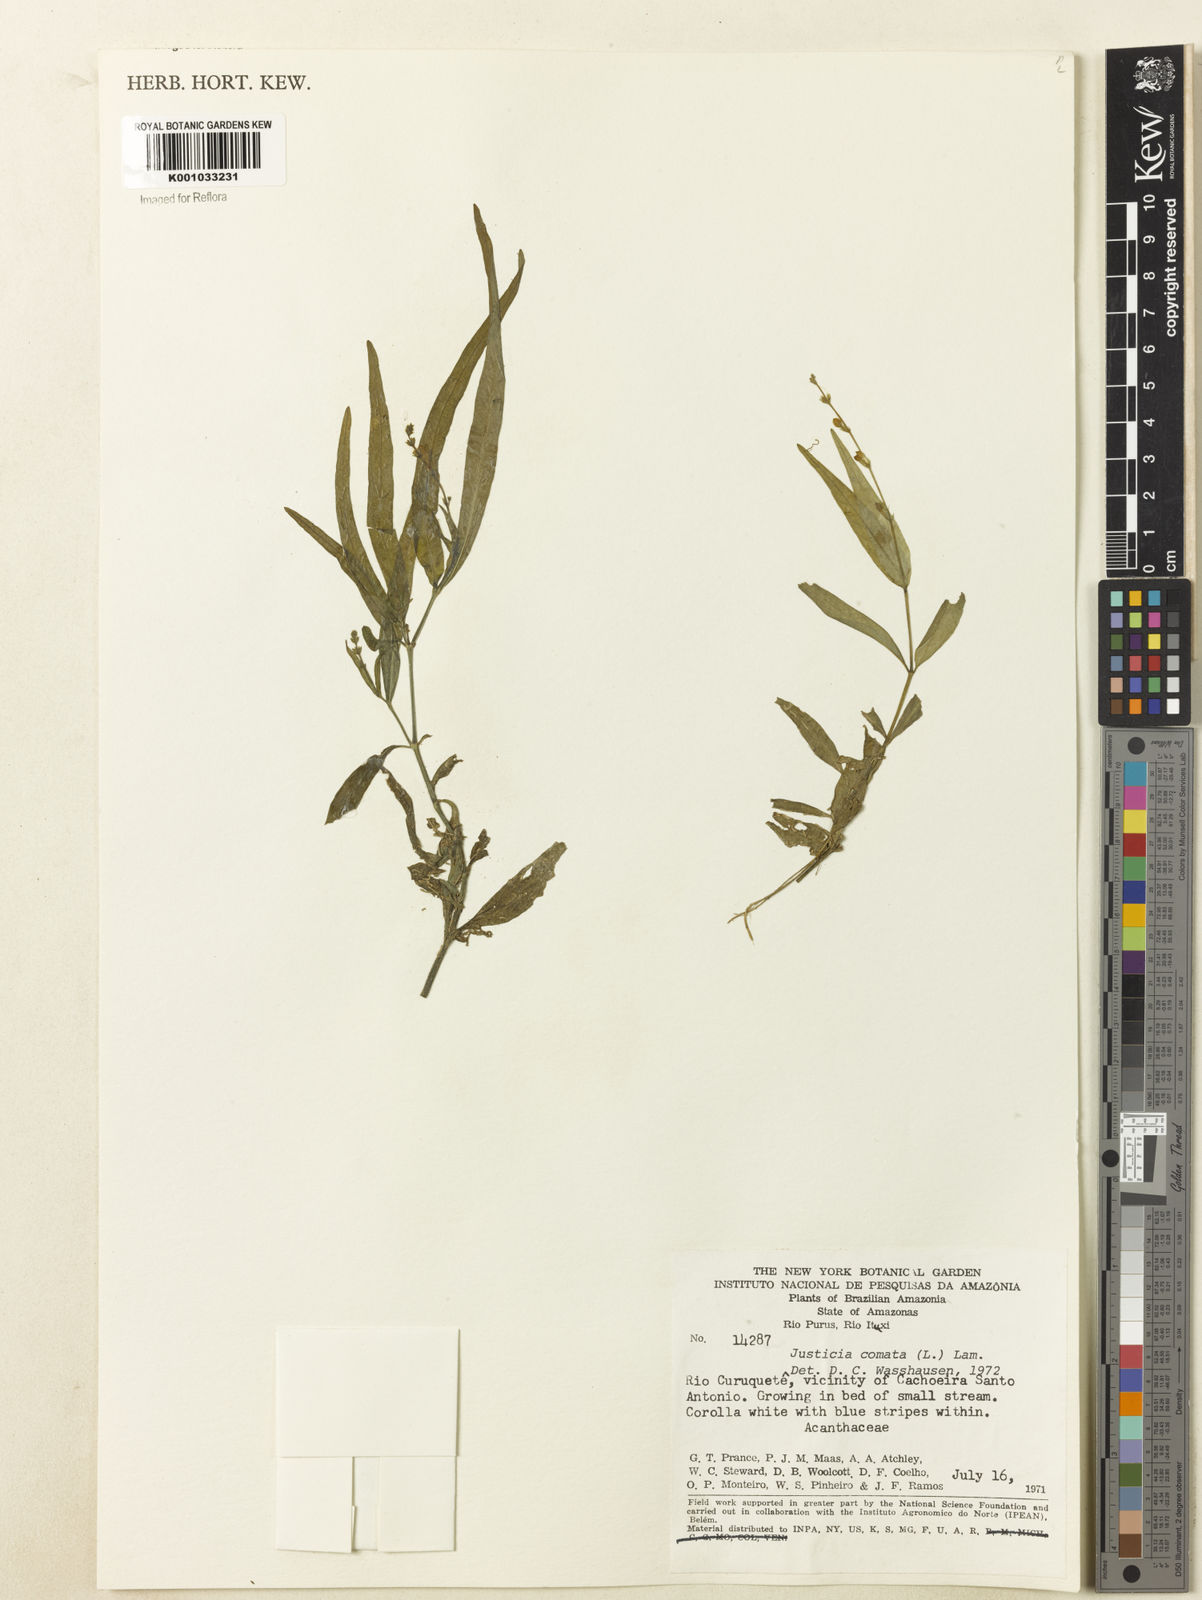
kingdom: Plantae
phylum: Tracheophyta
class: Magnoliopsida
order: Lamiales
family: Acanthaceae
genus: Dianthera
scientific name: Dianthera comata
